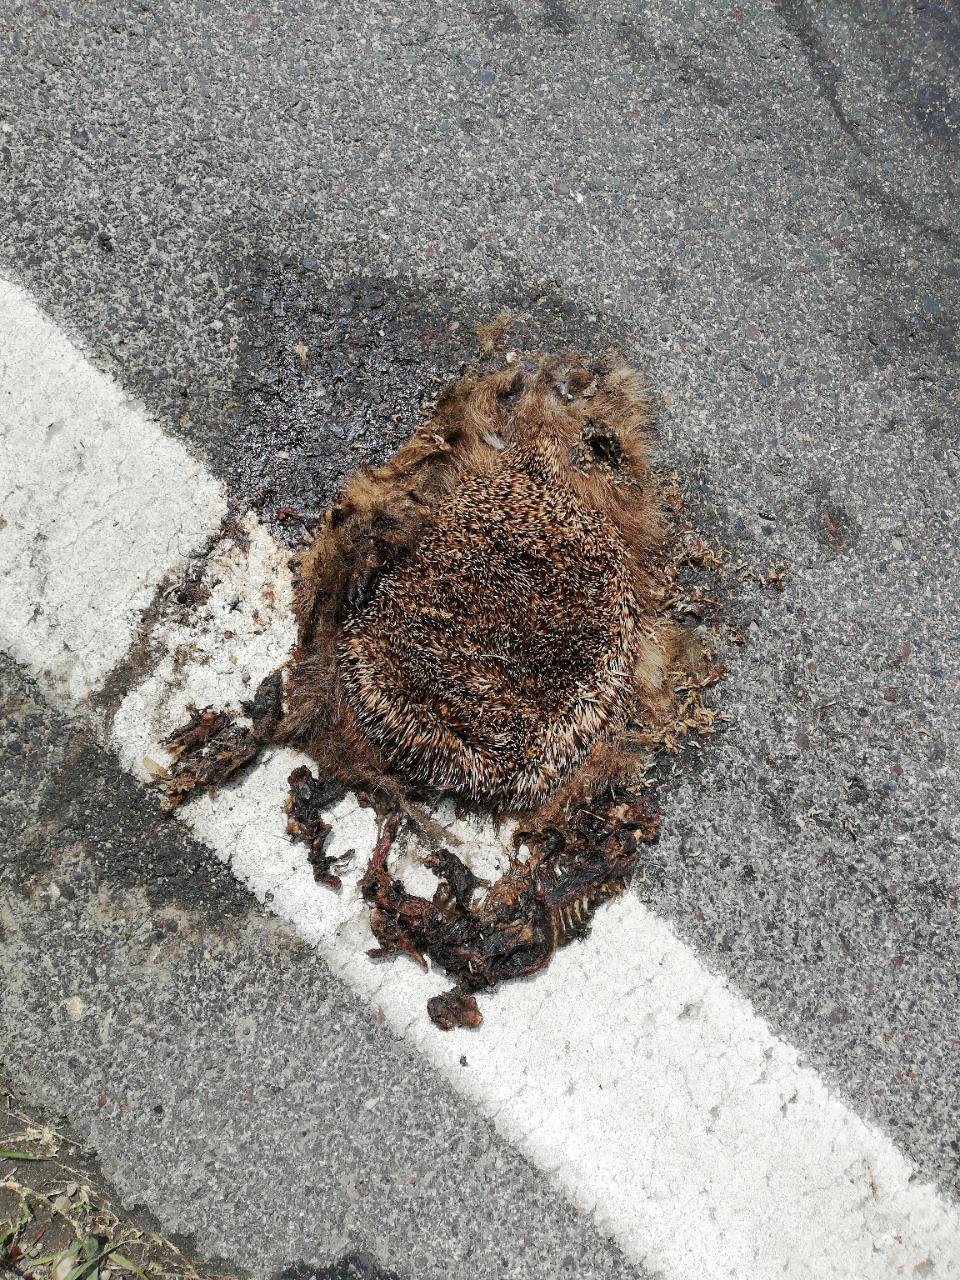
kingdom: Animalia
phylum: Chordata
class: Mammalia
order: Erinaceomorpha
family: Erinaceidae
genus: Erinaceus
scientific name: Erinaceus
